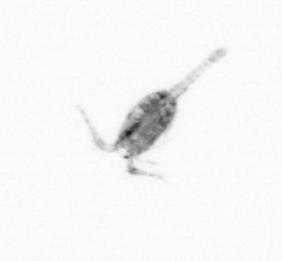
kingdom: Animalia
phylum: Arthropoda
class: Copepoda
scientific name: Copepoda
